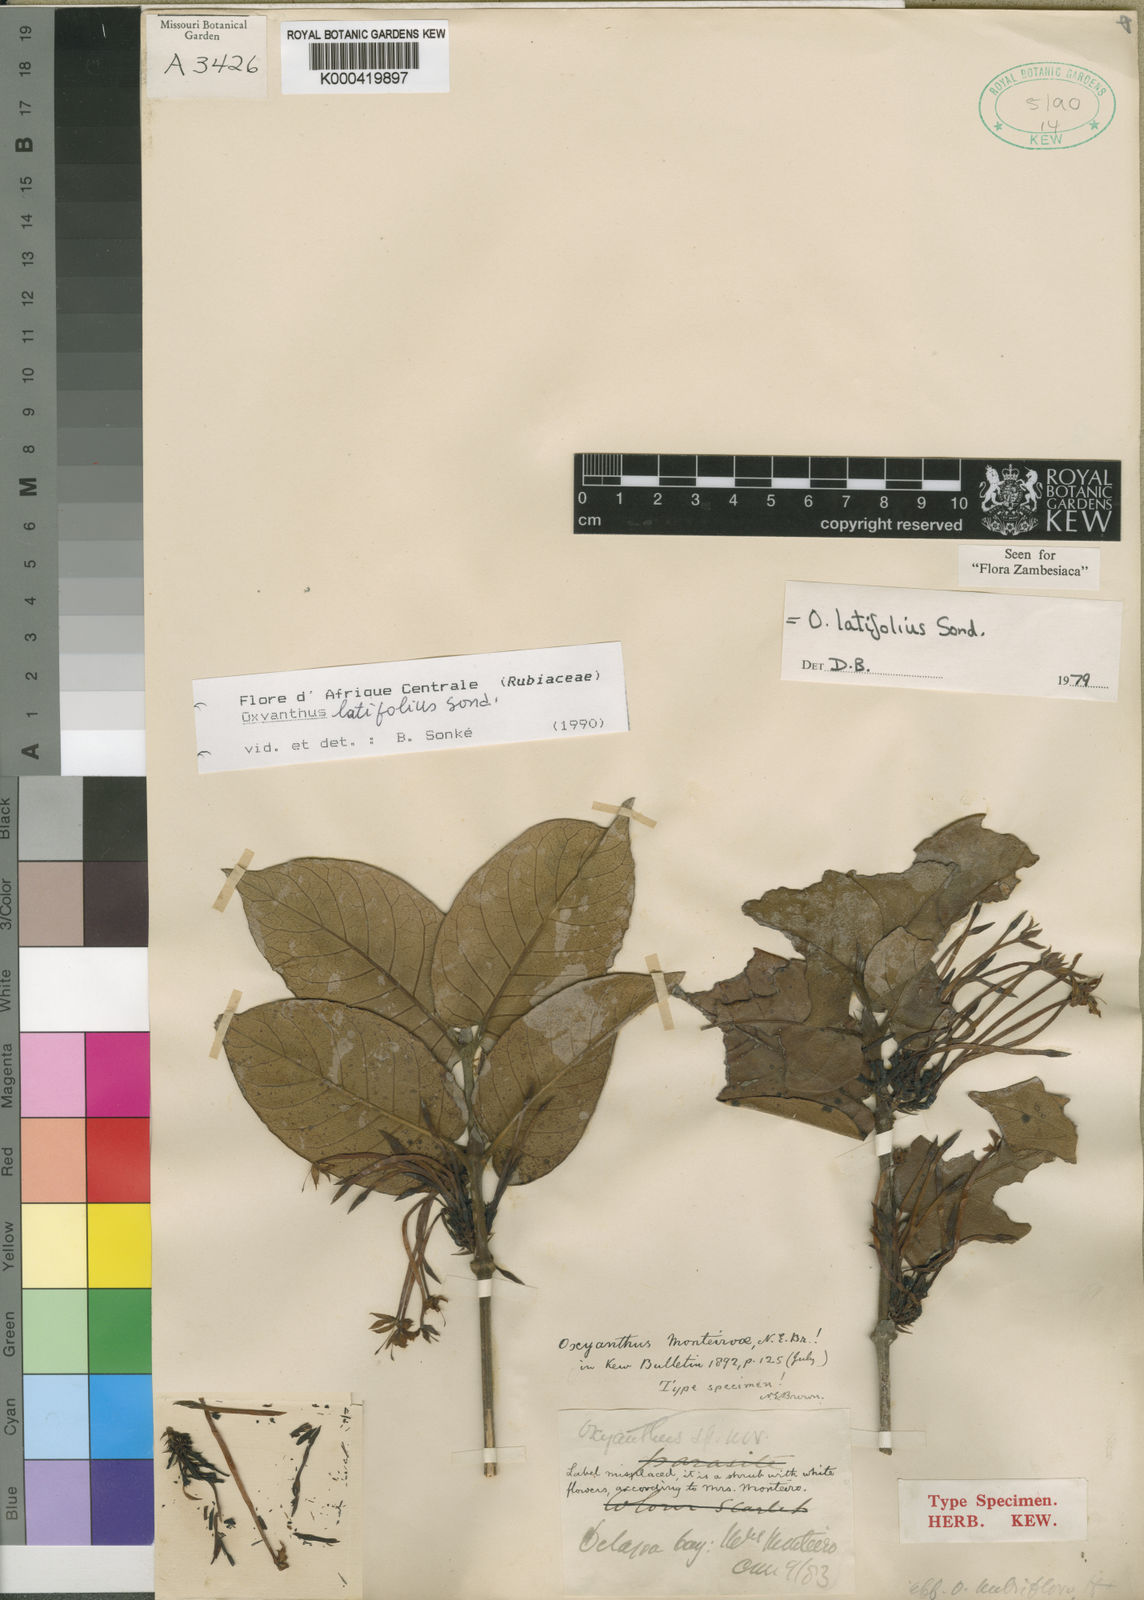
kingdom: Plantae
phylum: Tracheophyta
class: Magnoliopsida
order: Gentianales
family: Rubiaceae
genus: Oxyanthus
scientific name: Oxyanthus latifolius
